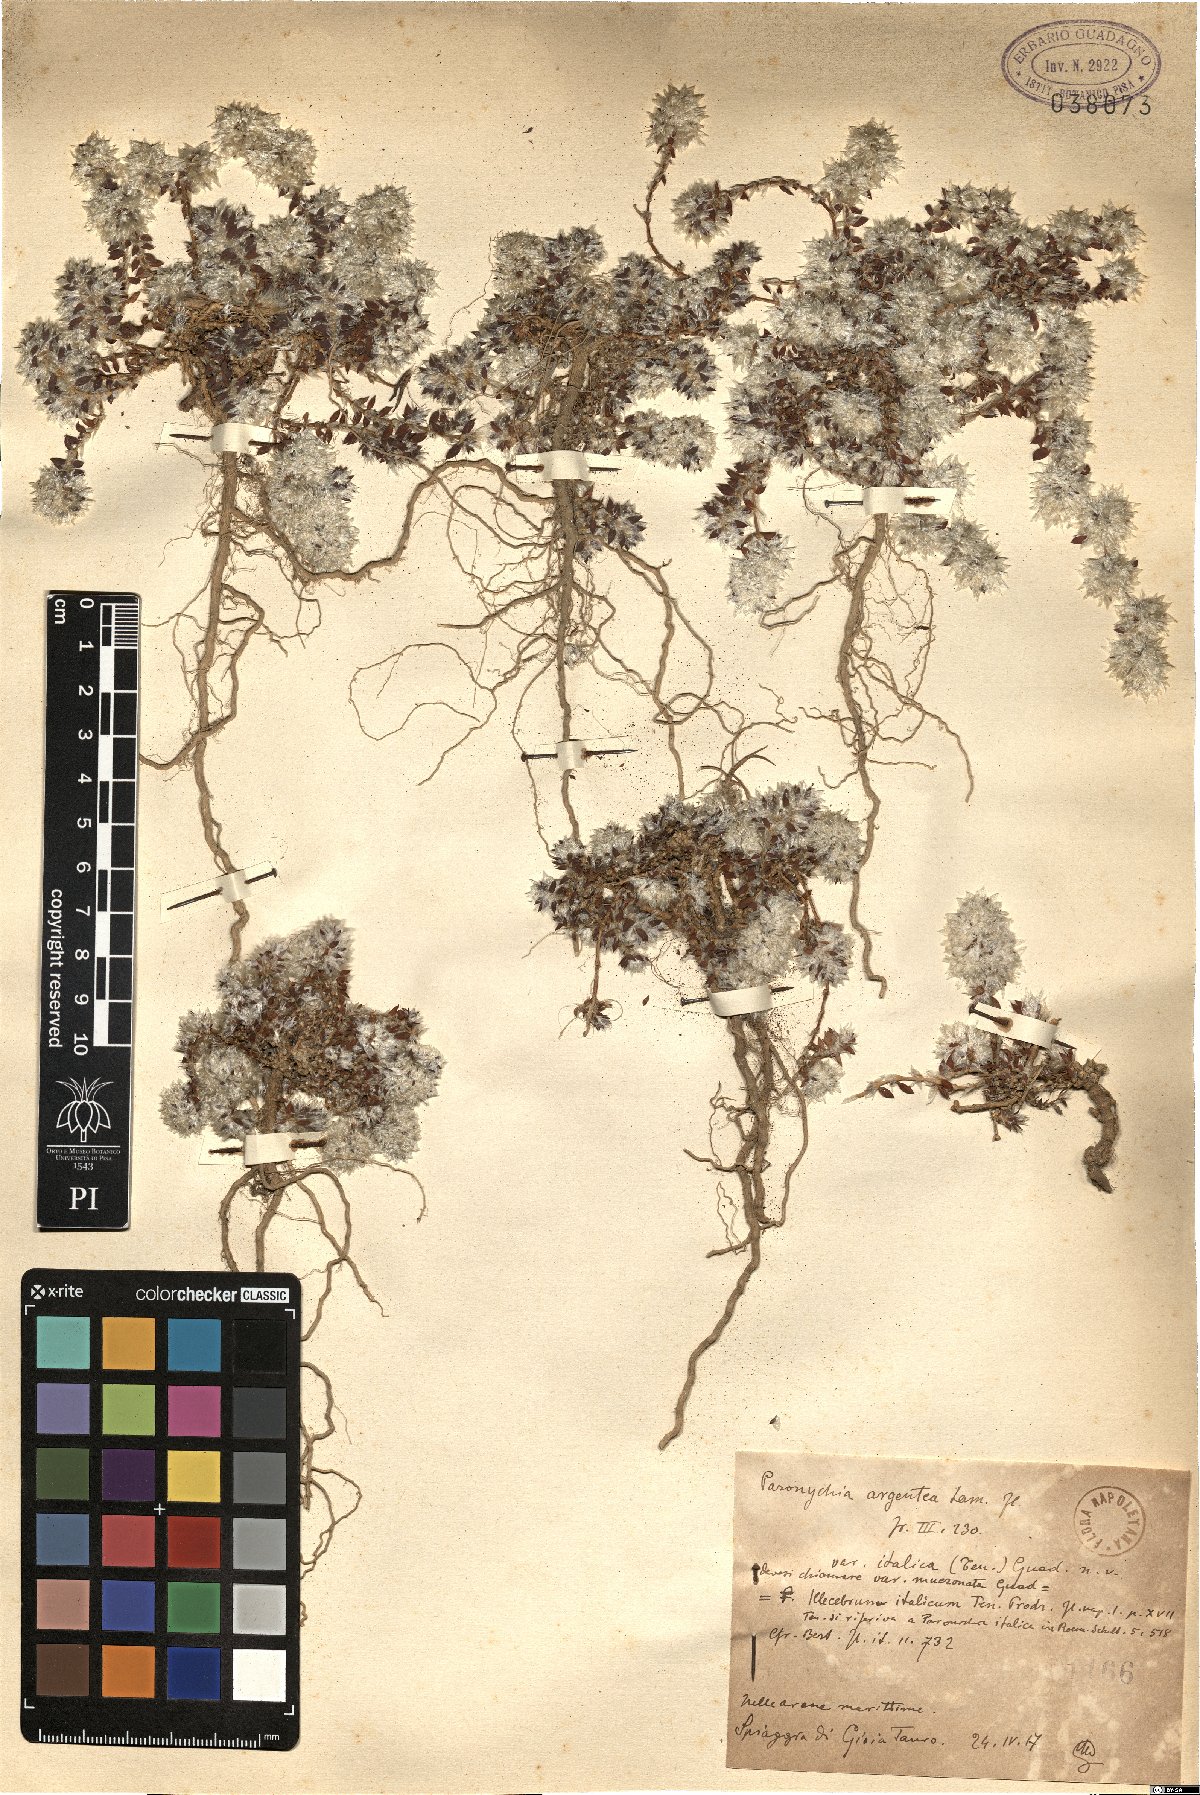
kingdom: Plantae
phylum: Tracheophyta
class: Magnoliopsida
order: Caryophyllales
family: Caryophyllaceae
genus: Paronychia
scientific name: Paronychia argentea
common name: Silver nailroot
